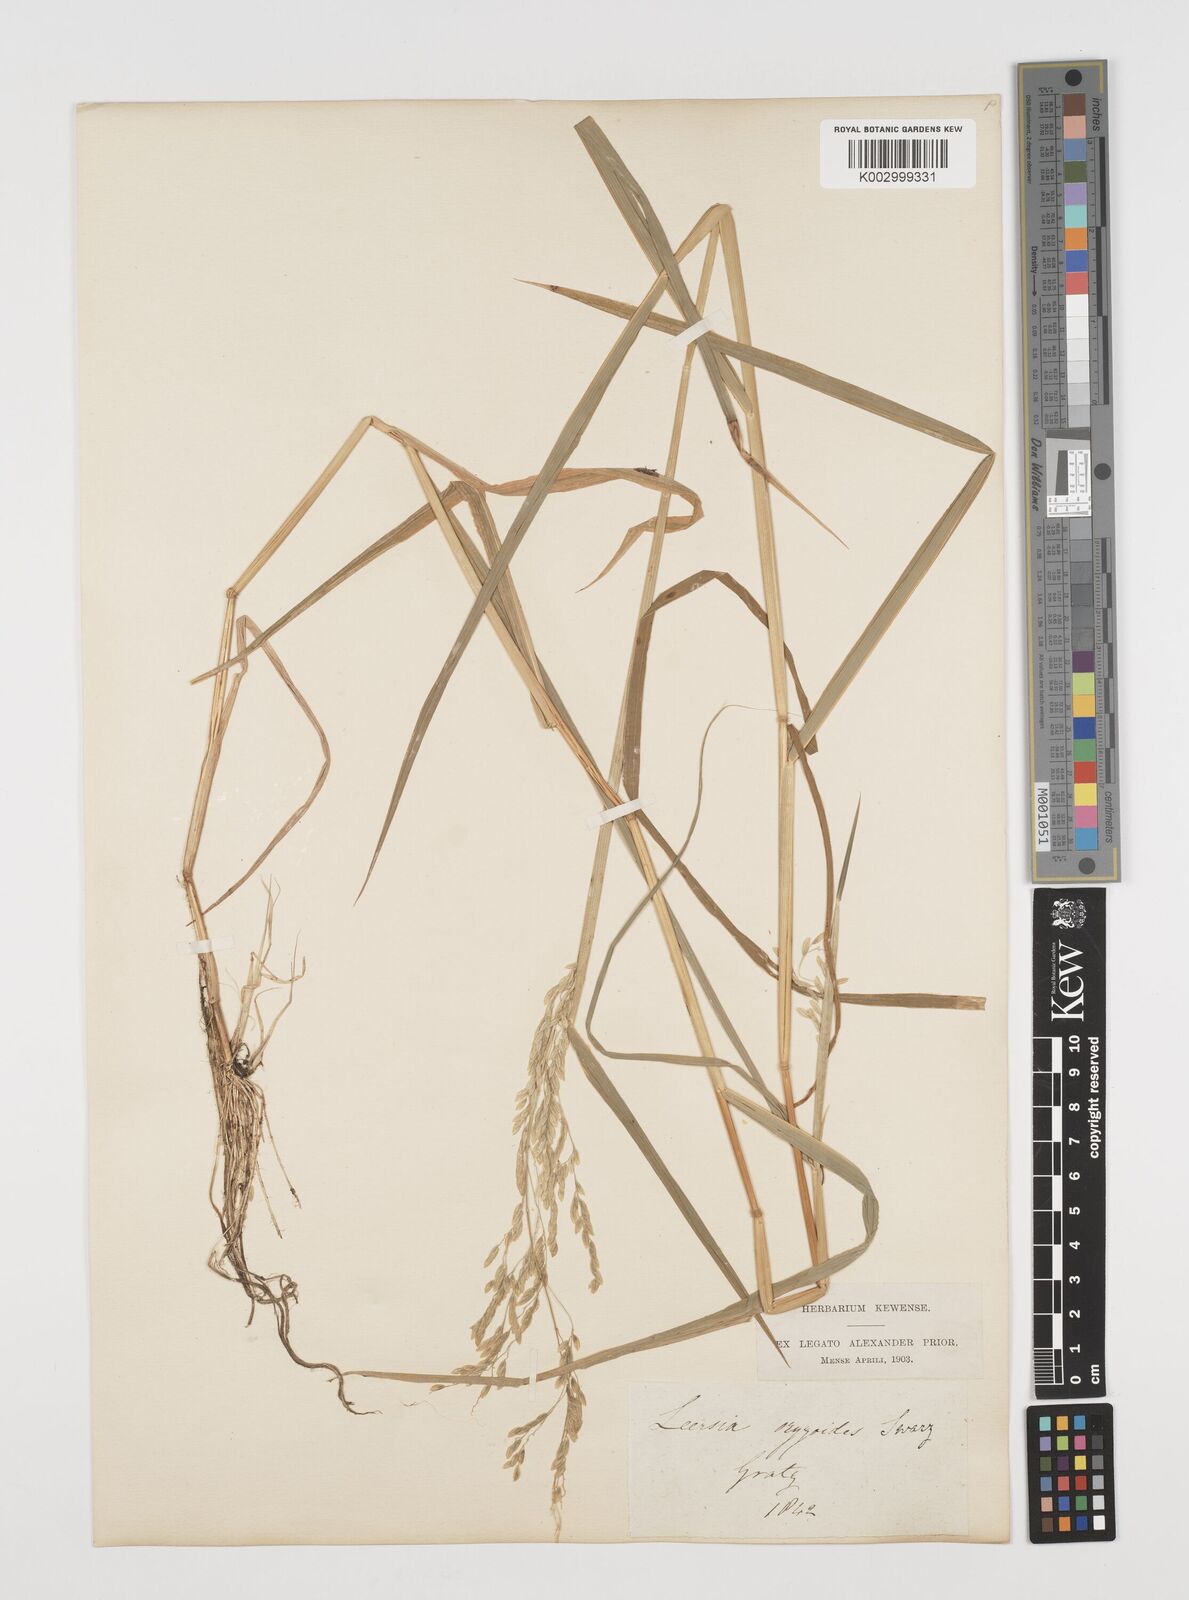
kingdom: Plantae
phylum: Tracheophyta
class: Liliopsida
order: Poales
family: Poaceae
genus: Leersia
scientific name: Leersia oryzoides
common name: Cut-grass
